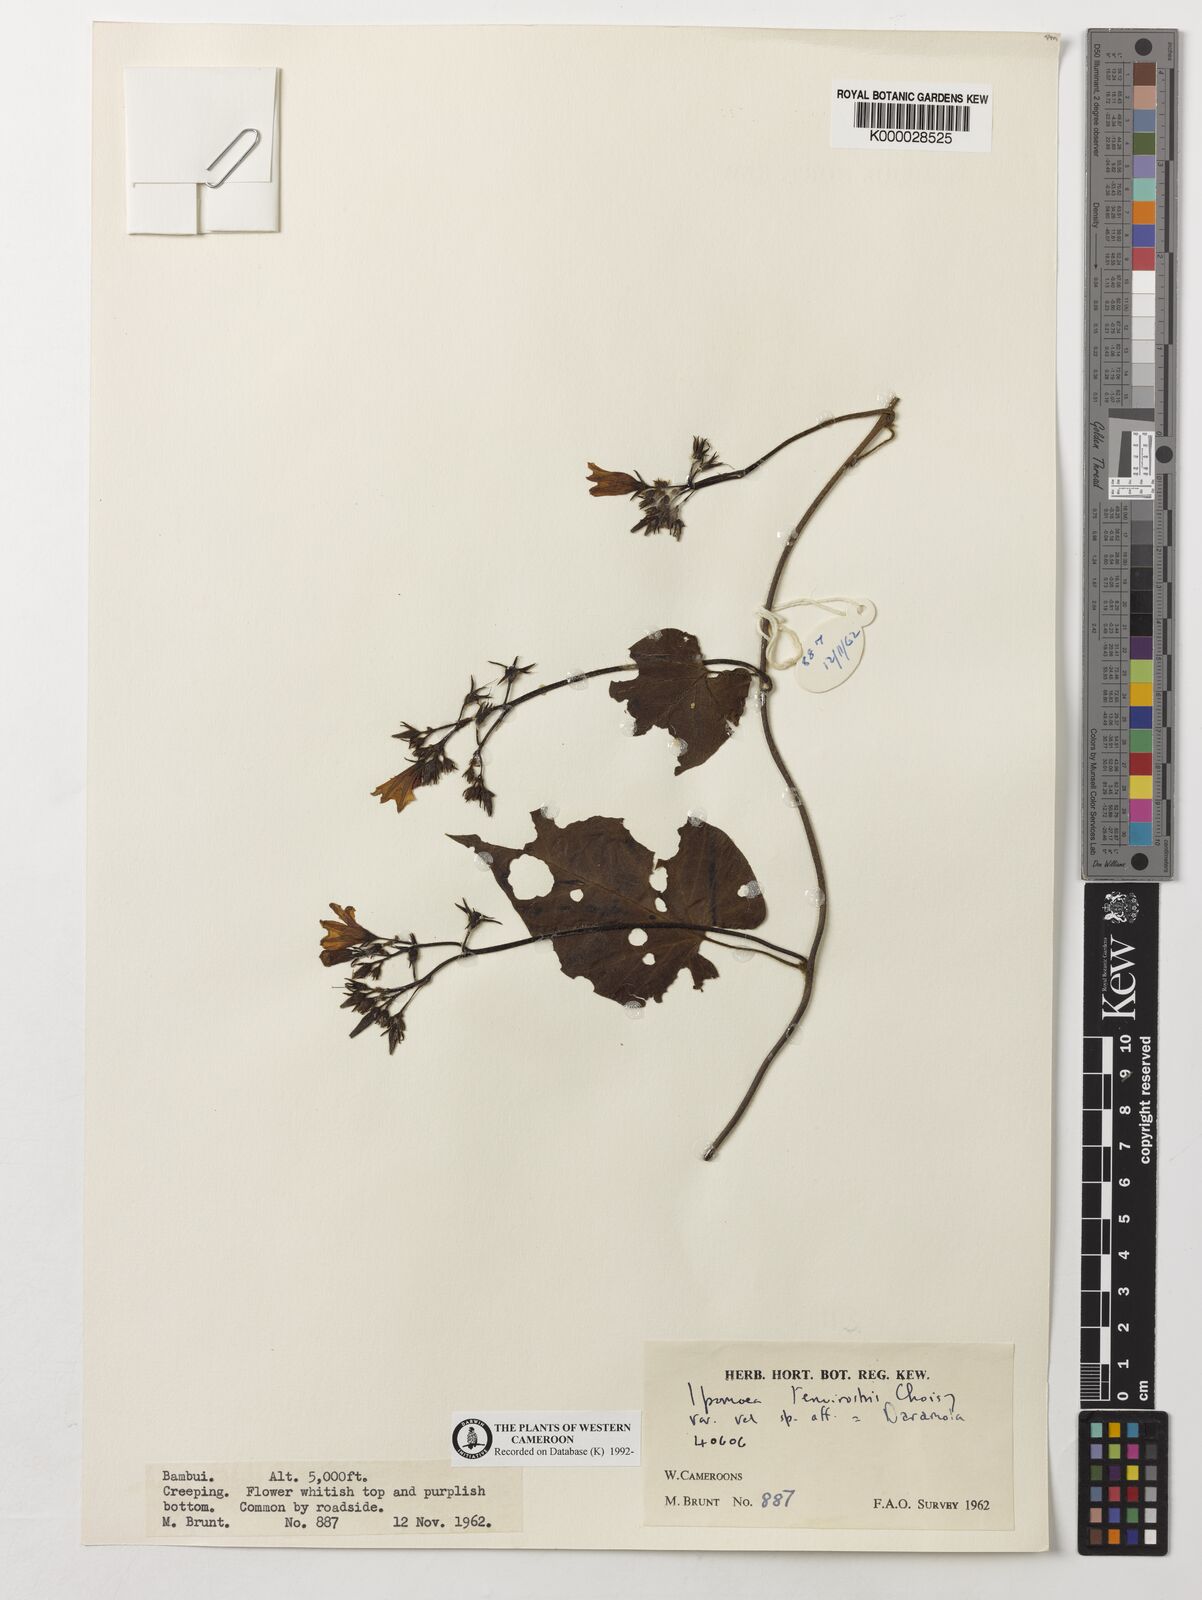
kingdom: Plantae
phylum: Tracheophyta
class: Magnoliopsida
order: Solanales
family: Convolvulaceae
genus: Ipomoea
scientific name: Ipomoea tenuirostris
